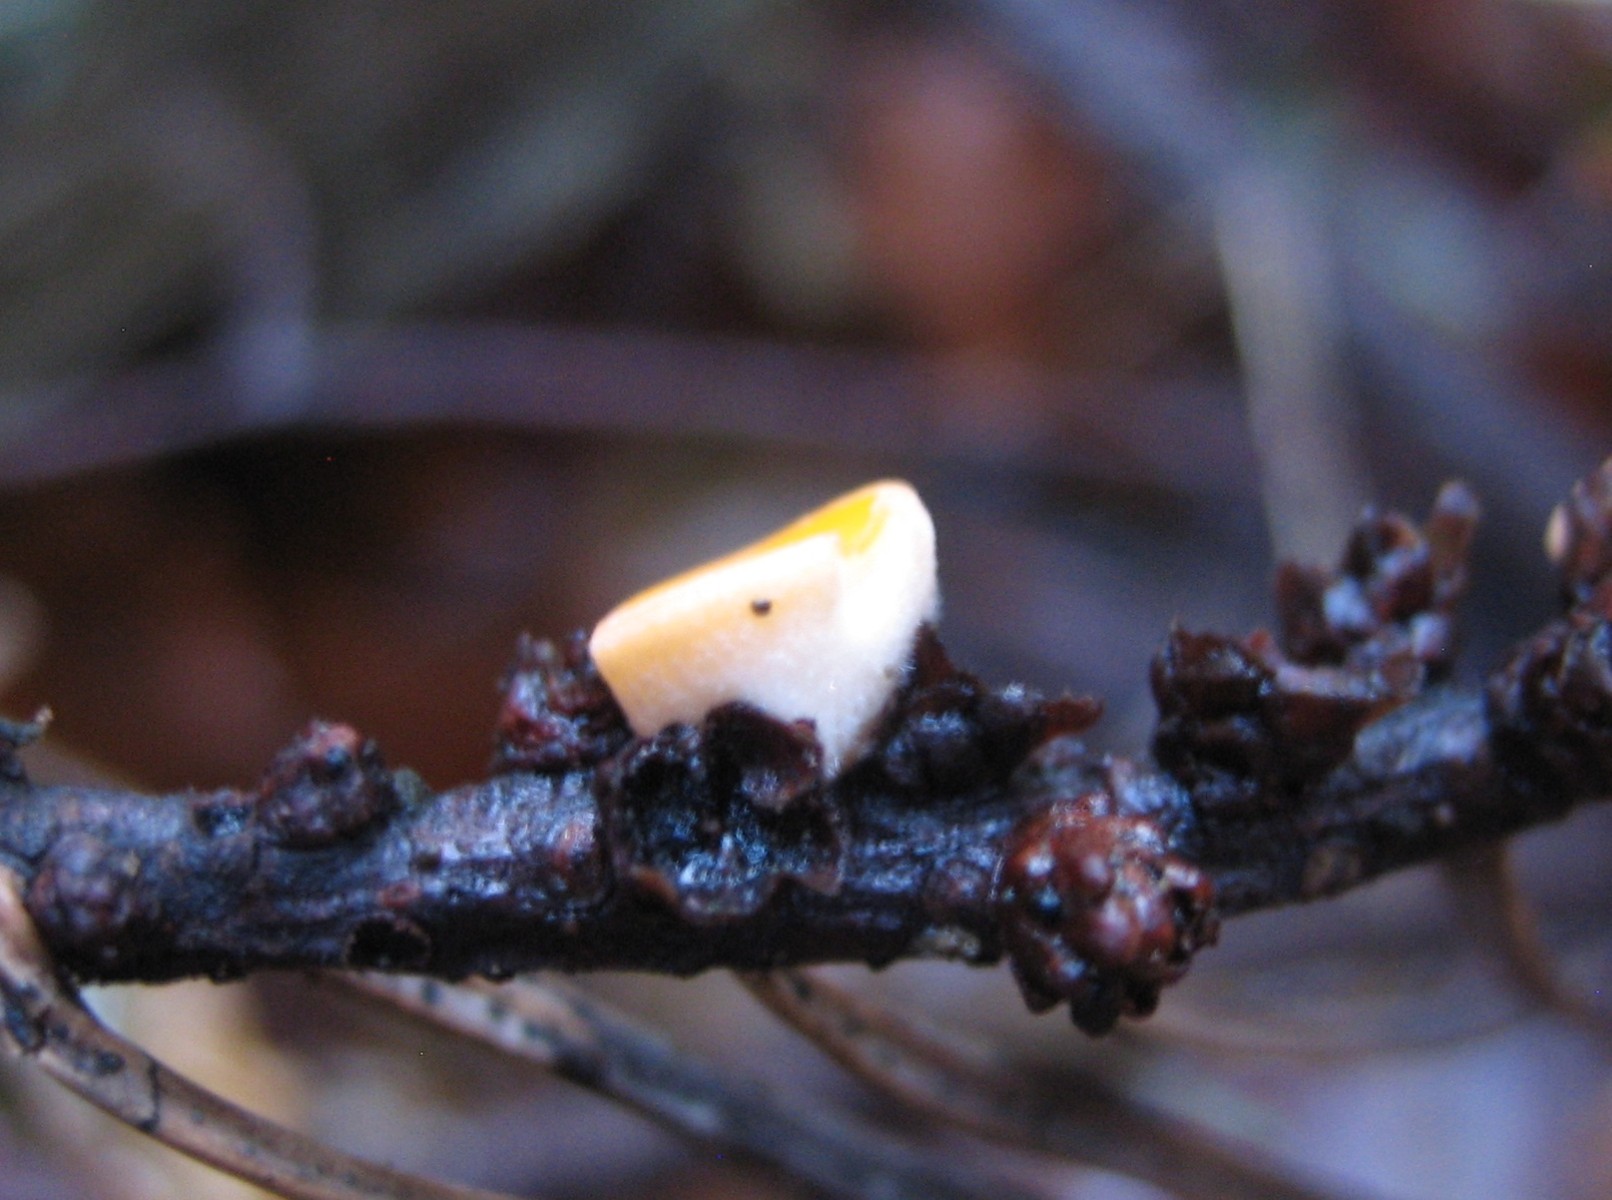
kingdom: Fungi
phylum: Ascomycota
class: Pezizomycetes
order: Pezizales
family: Sarcoscyphaceae
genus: Pithya
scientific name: Pithya vulgaris
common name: stor dukatbæger
